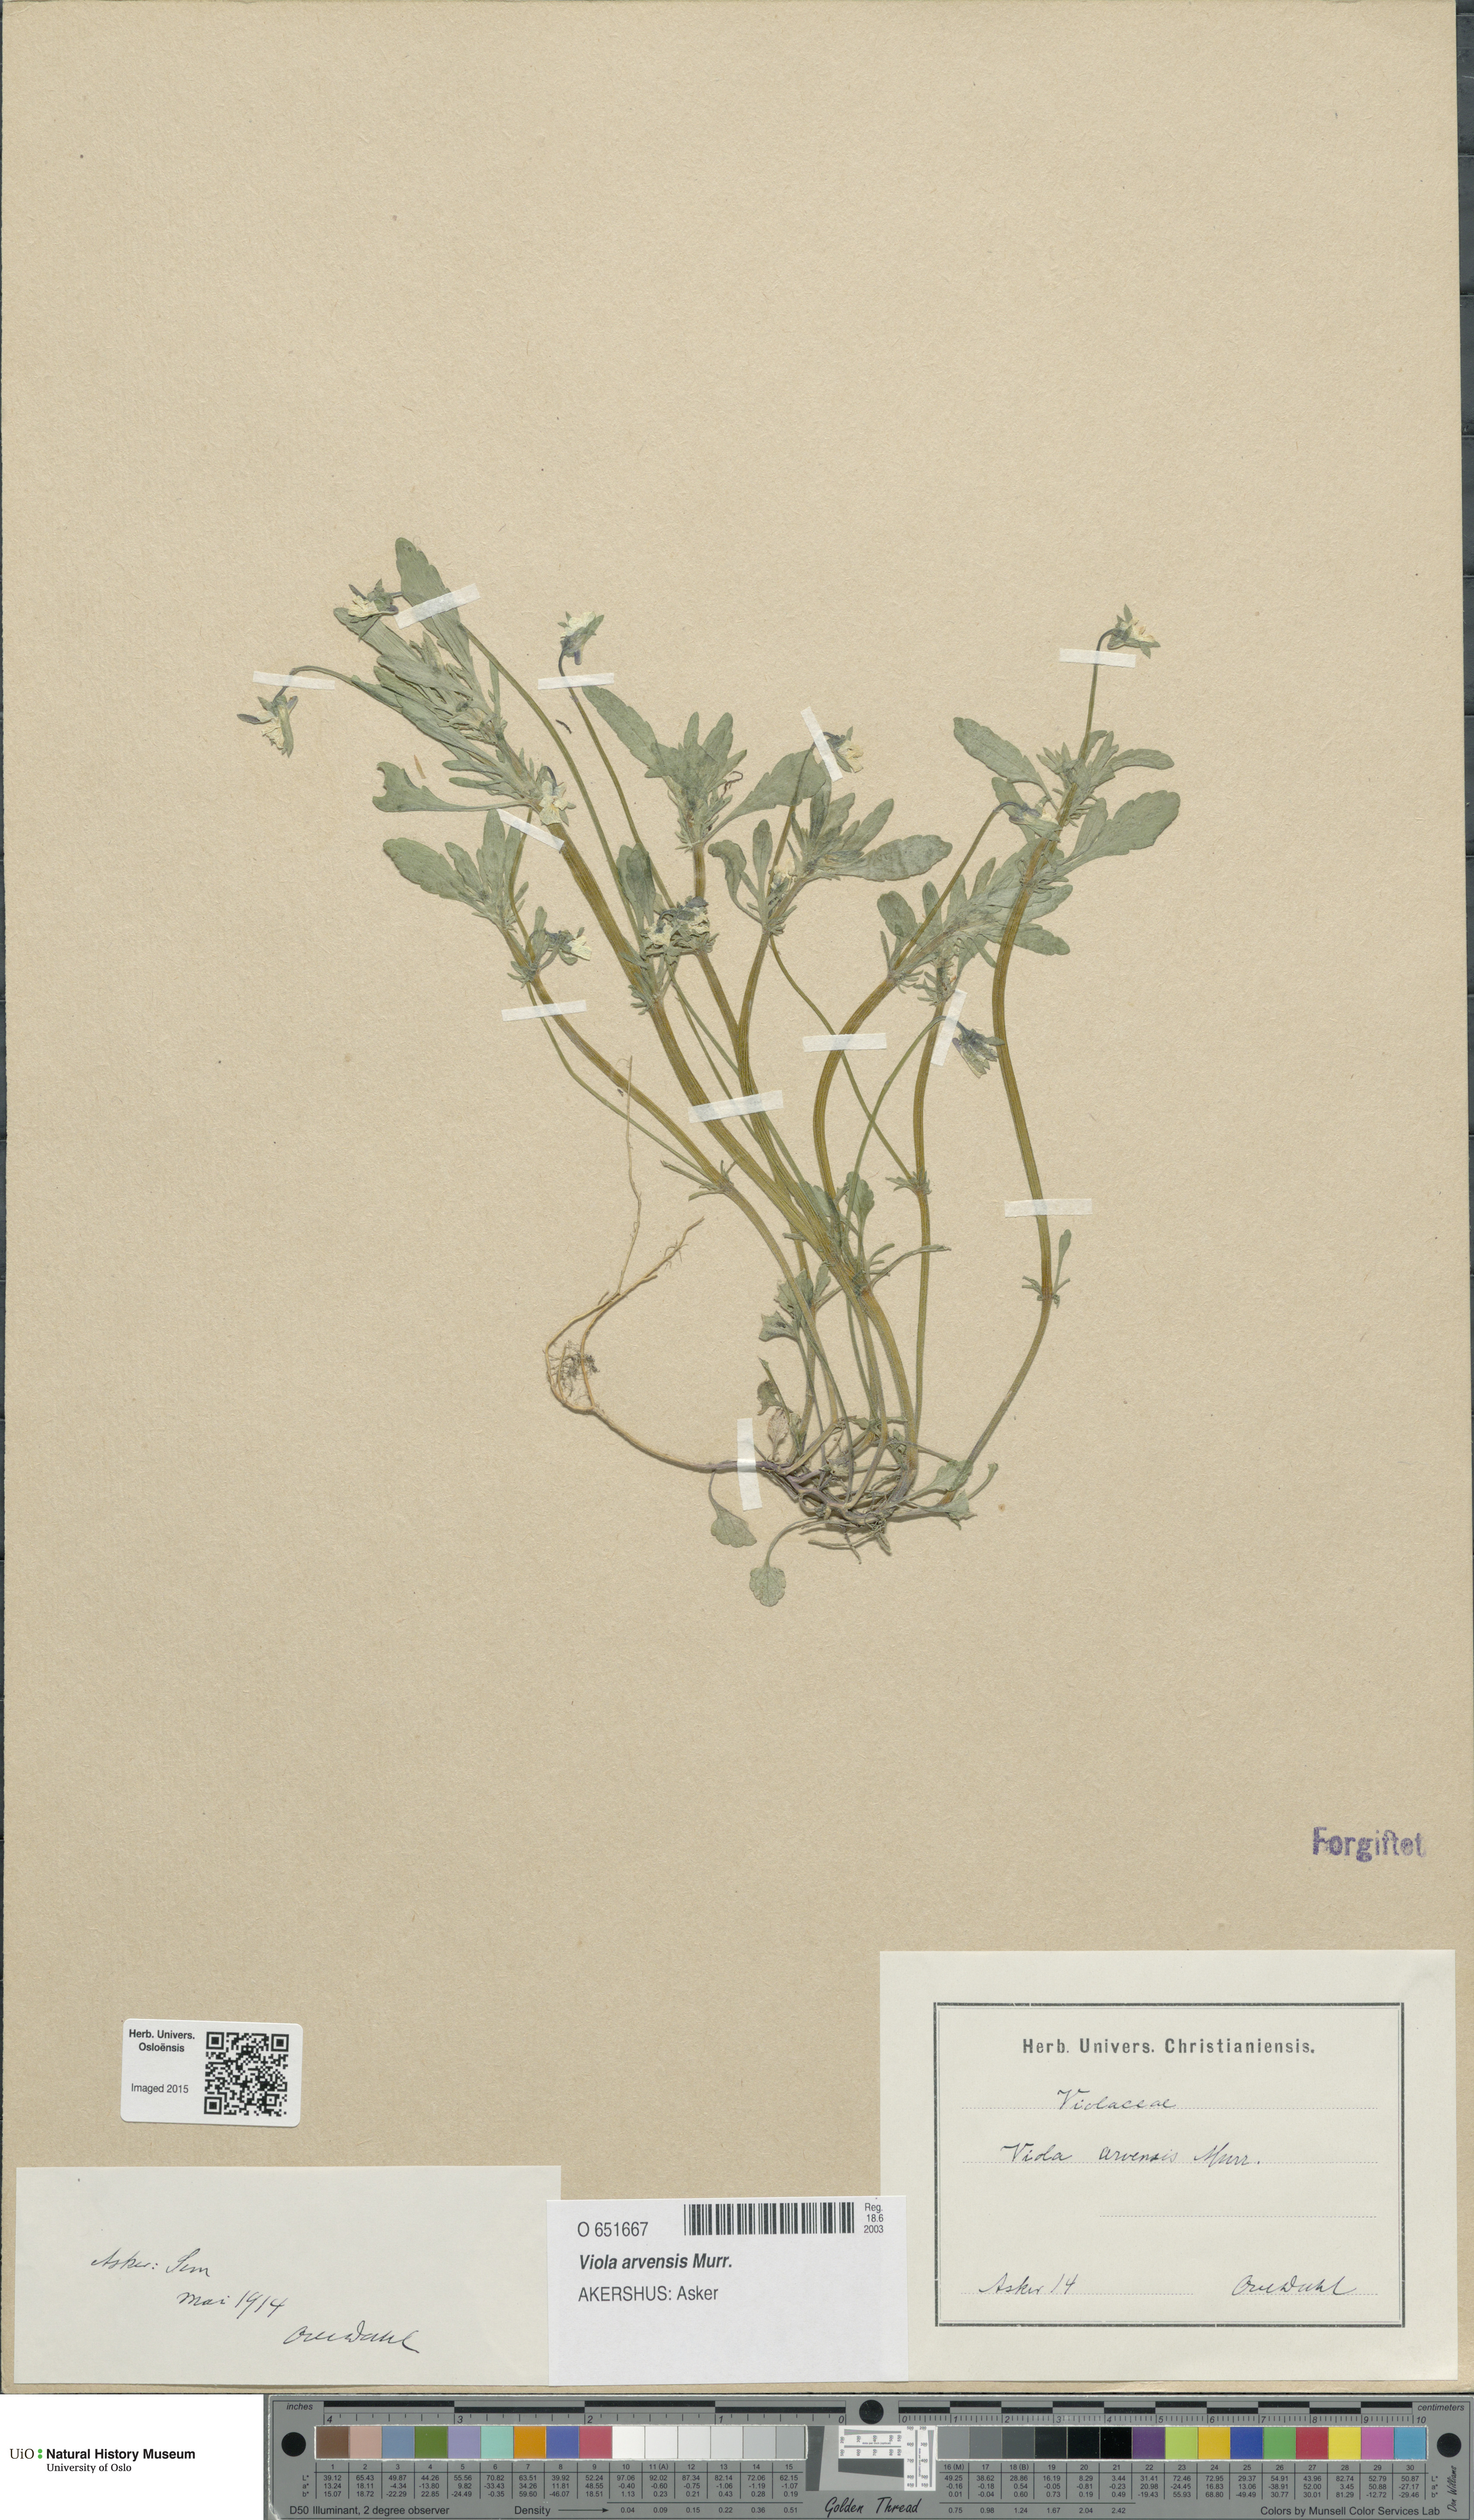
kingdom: Plantae
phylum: Tracheophyta
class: Magnoliopsida
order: Malpighiales
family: Violaceae
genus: Viola
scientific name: Viola arvensis
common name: Field pansy
